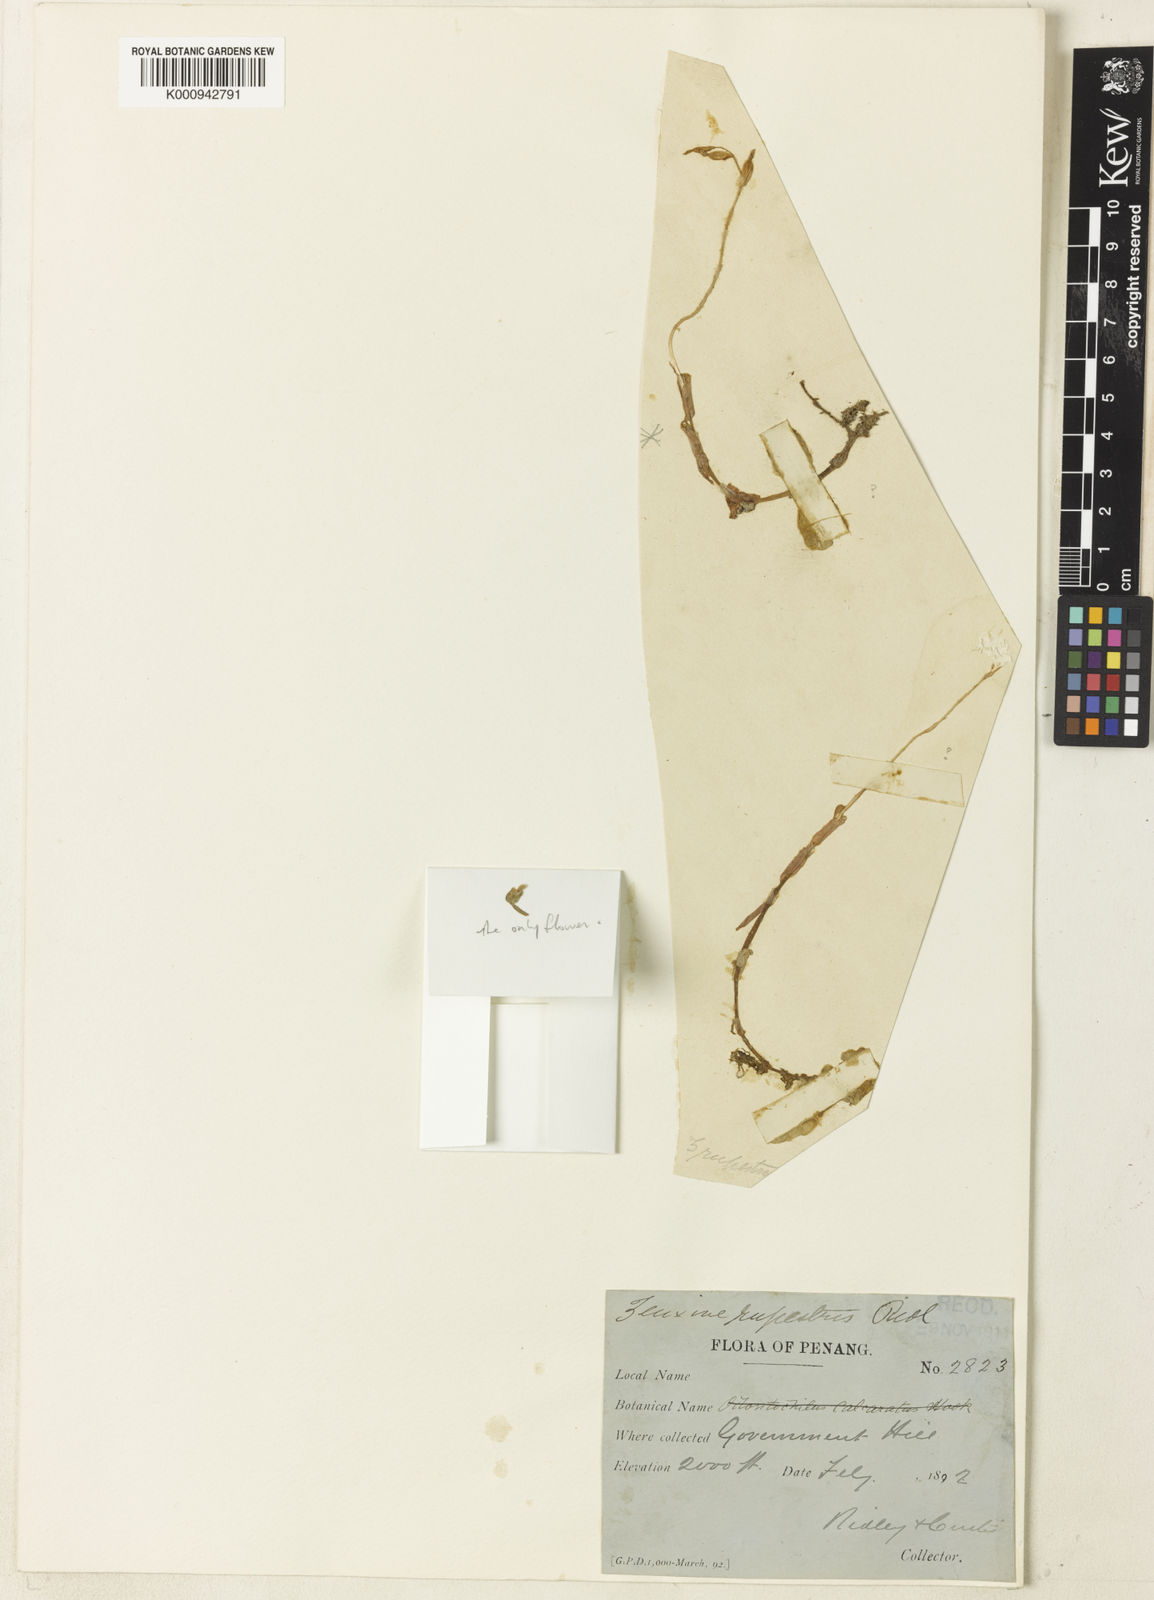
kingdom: Plantae
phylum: Tracheophyta
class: Liliopsida
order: Asparagales
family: Orchidaceae
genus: Zeuxine
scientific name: Zeuxine rupestris
